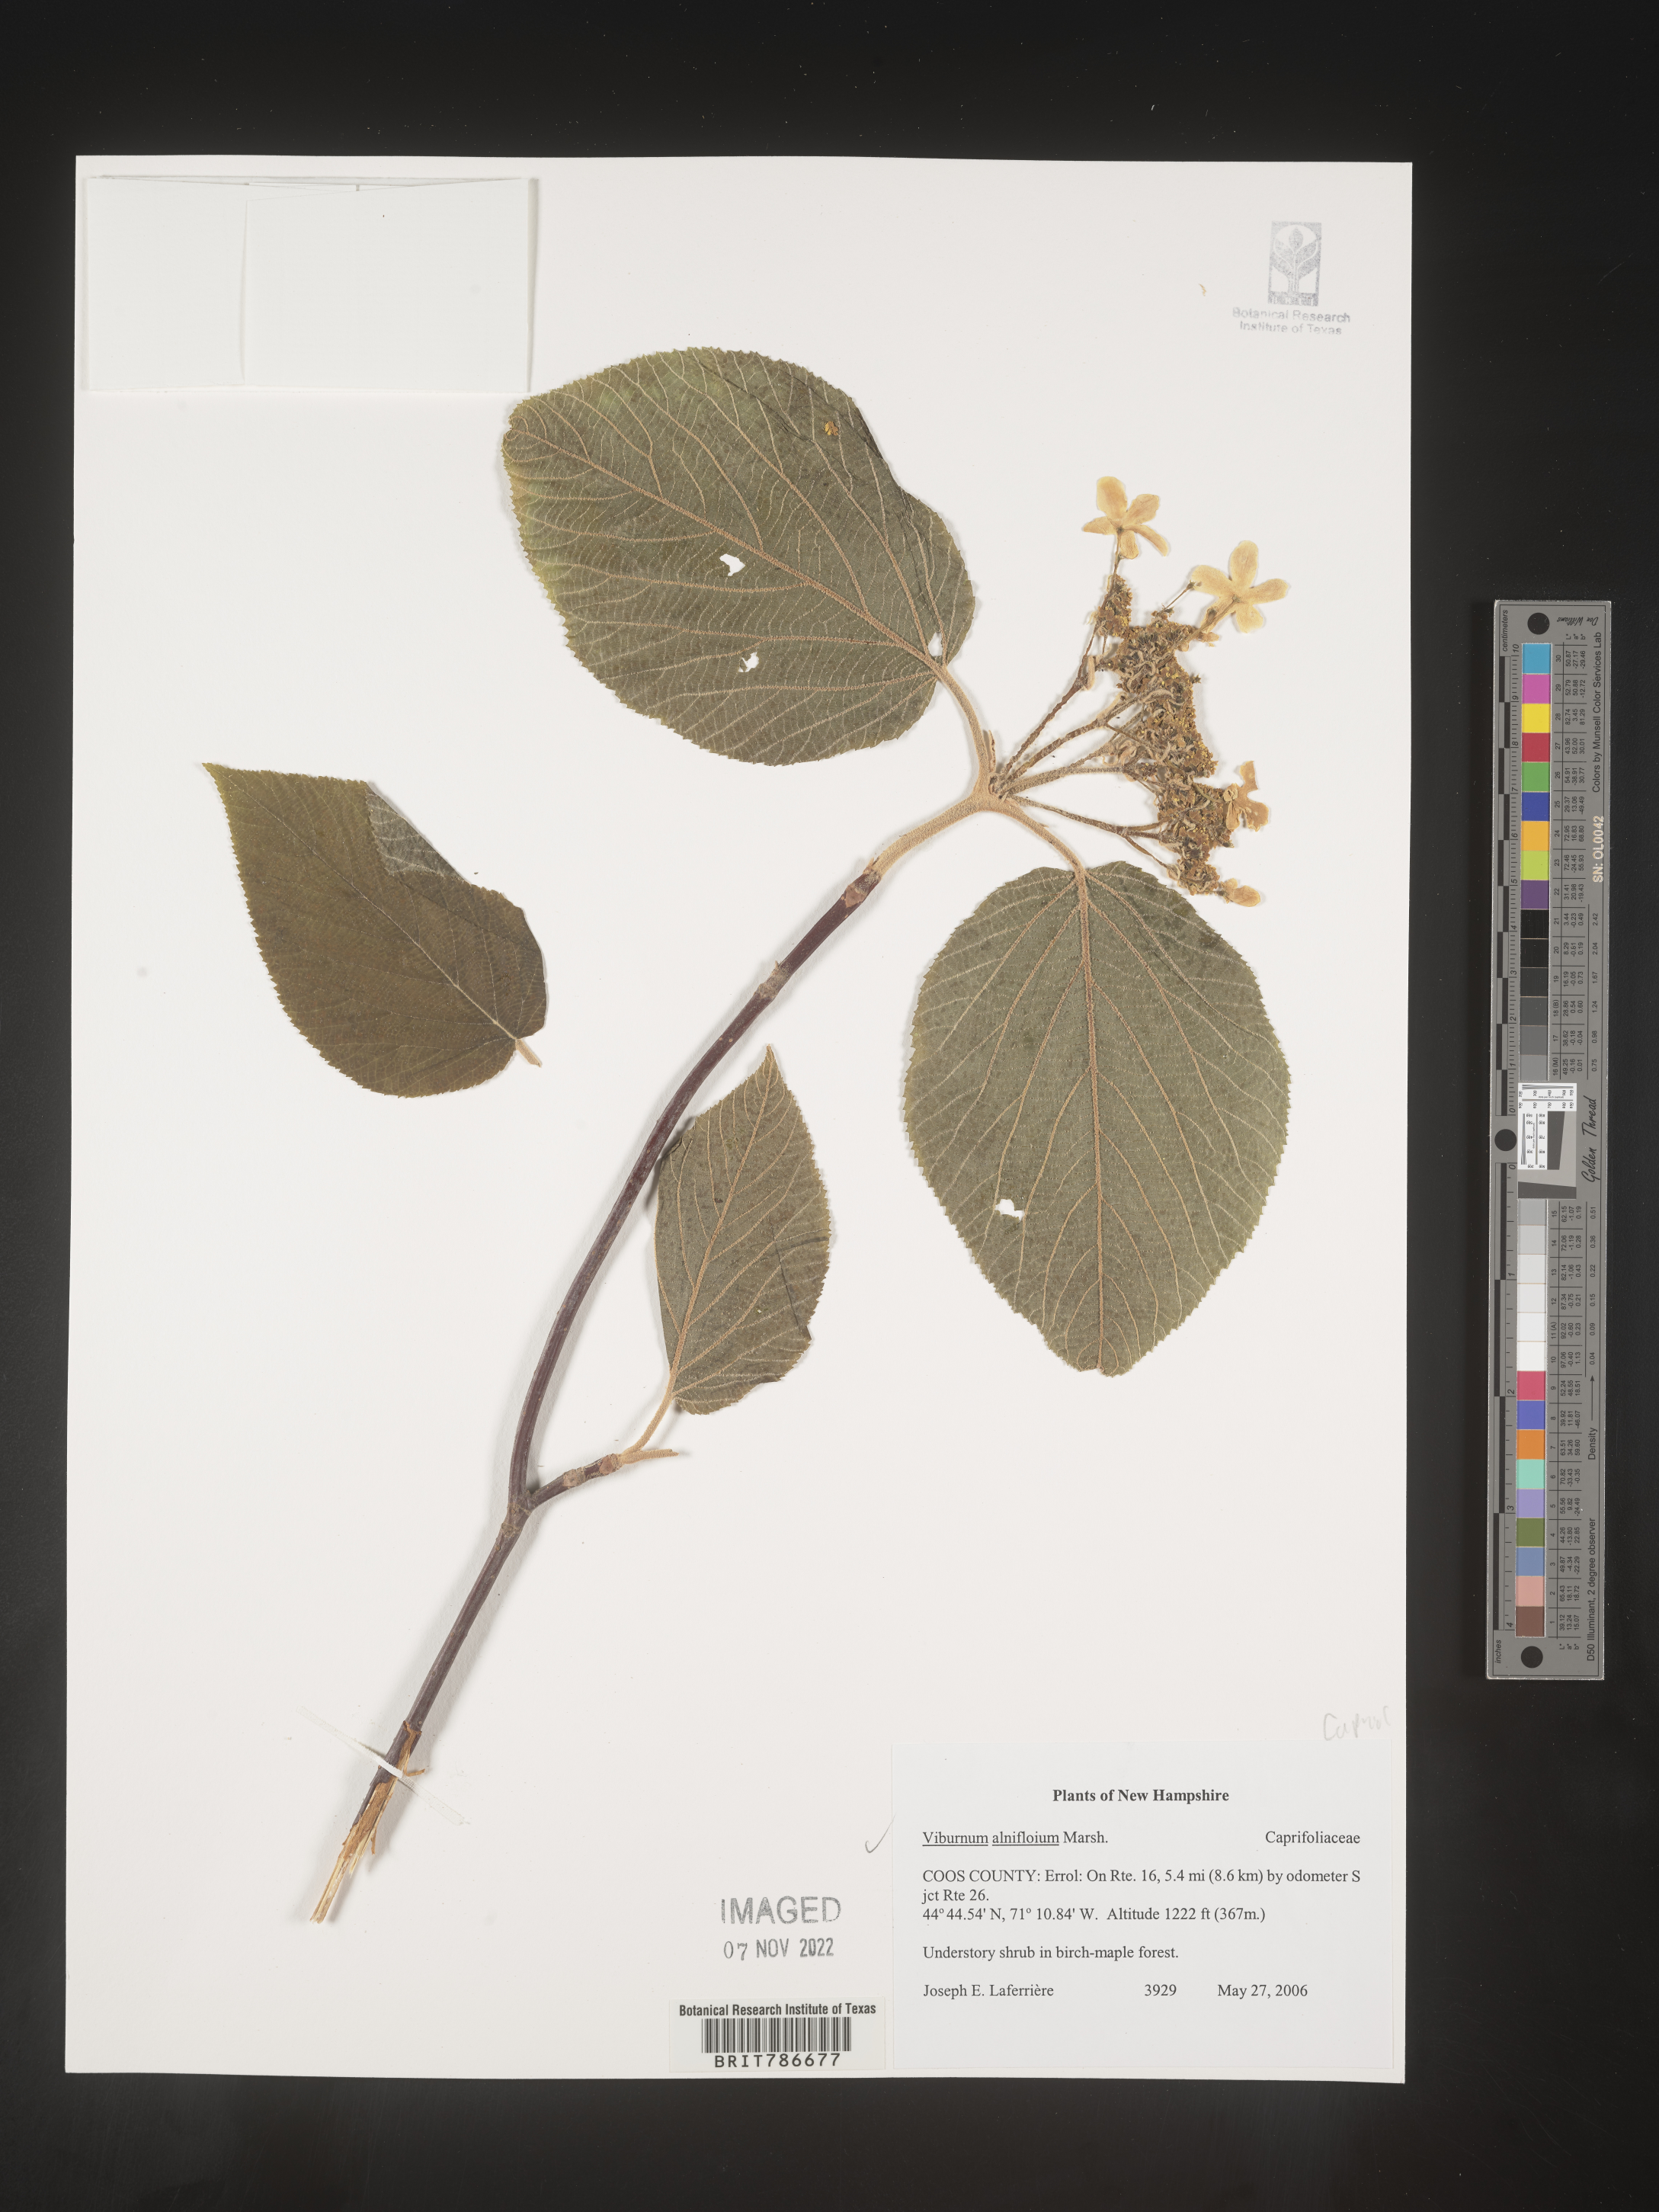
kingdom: Plantae
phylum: Tracheophyta
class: Magnoliopsida
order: Dipsacales
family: Viburnaceae
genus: Viburnum
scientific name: Viburnum lantanoides
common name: Hobblebush
